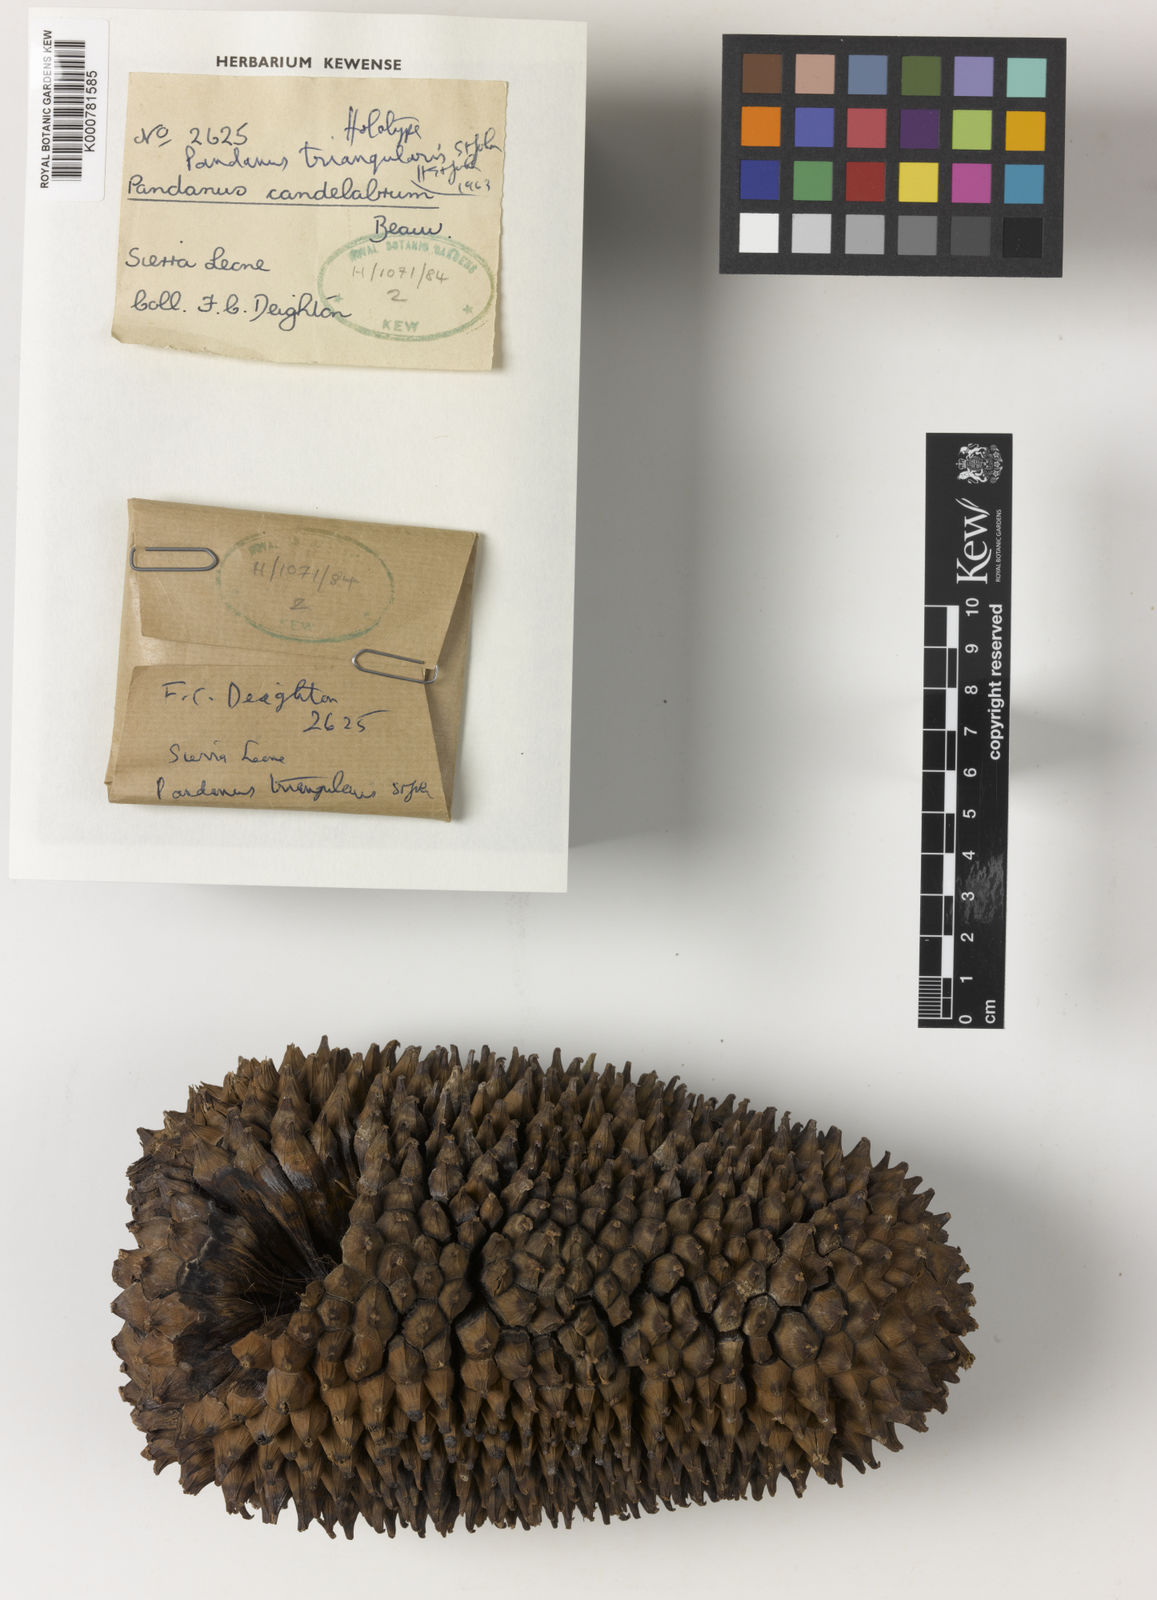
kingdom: Plantae
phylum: Tracheophyta
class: Liliopsida
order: Pandanales
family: Pandanaceae
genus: Pandanus
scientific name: Pandanus candelabrum
